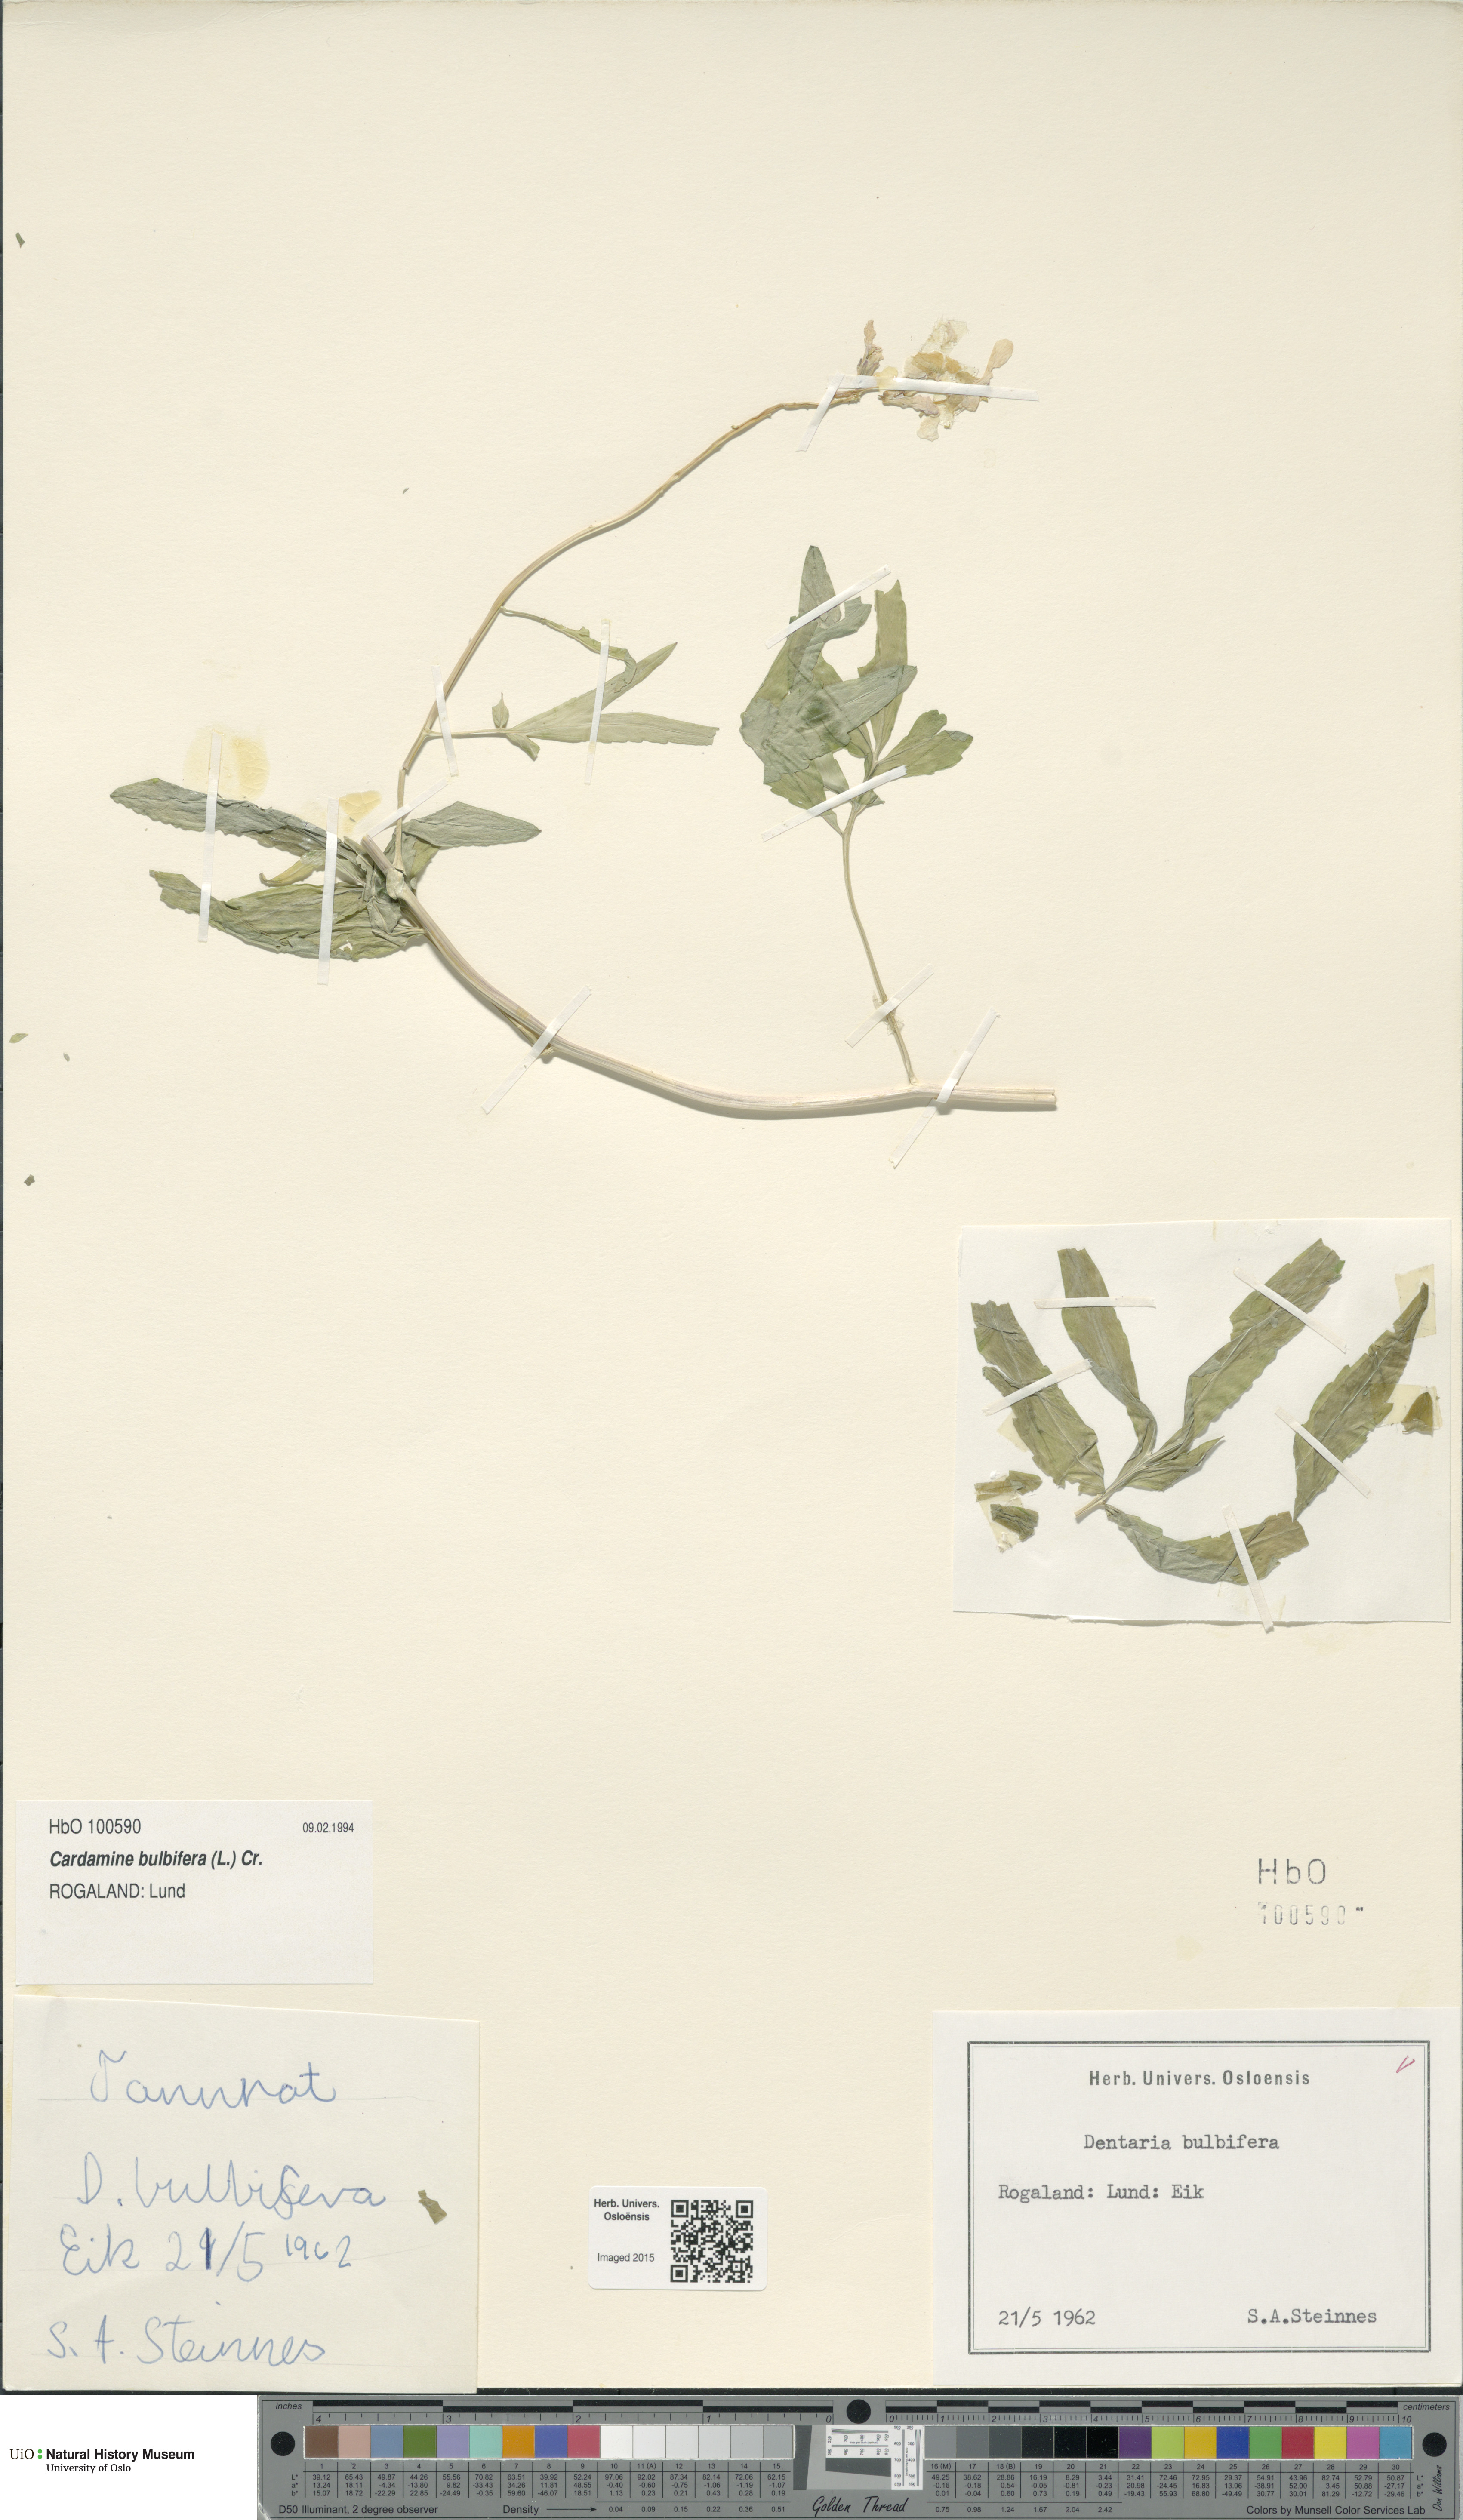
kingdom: Plantae
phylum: Tracheophyta
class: Magnoliopsida
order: Brassicales
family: Brassicaceae
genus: Cardamine
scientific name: Cardamine bulbifera
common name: Coralroot bittercress
